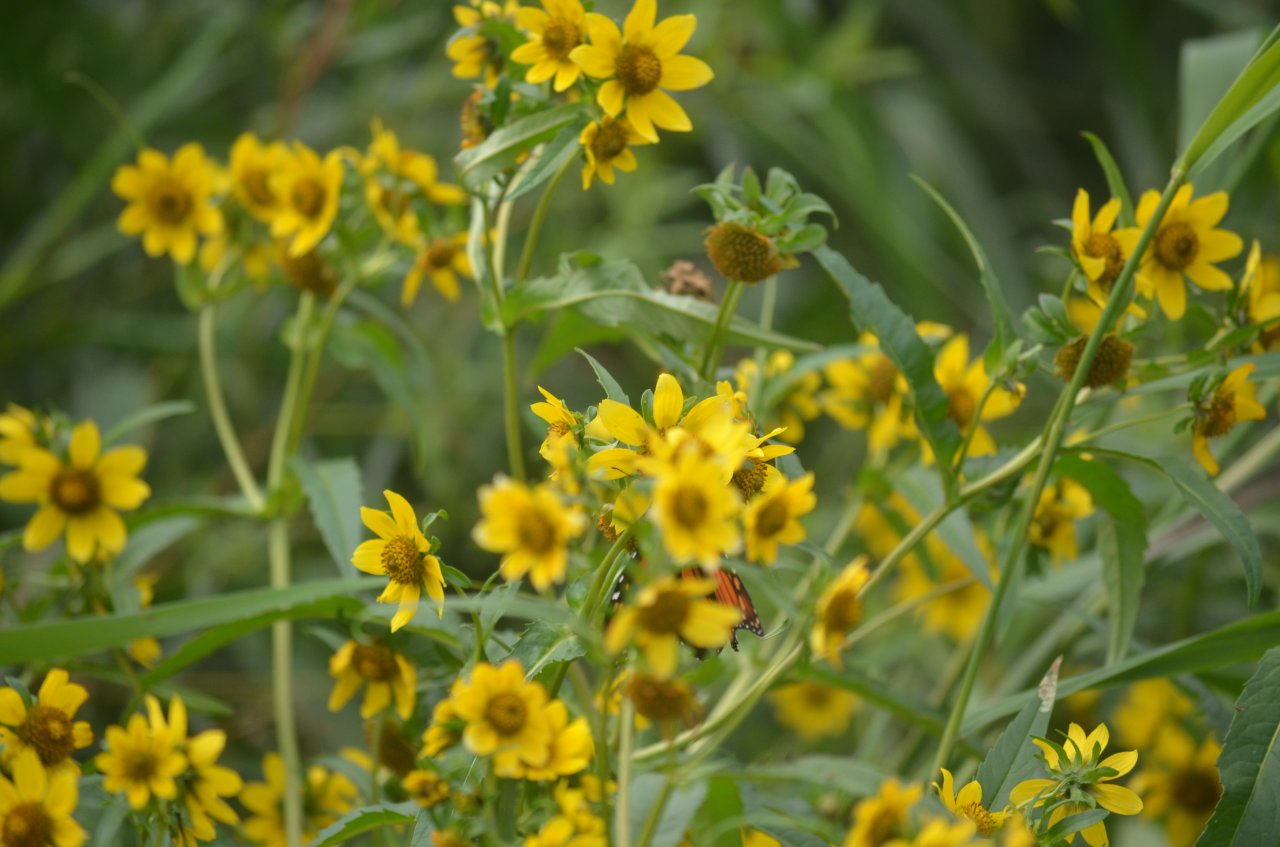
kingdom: Animalia
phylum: Arthropoda
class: Insecta
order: Lepidoptera
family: Nymphalidae
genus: Danaus
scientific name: Danaus plexippus
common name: Monarch
